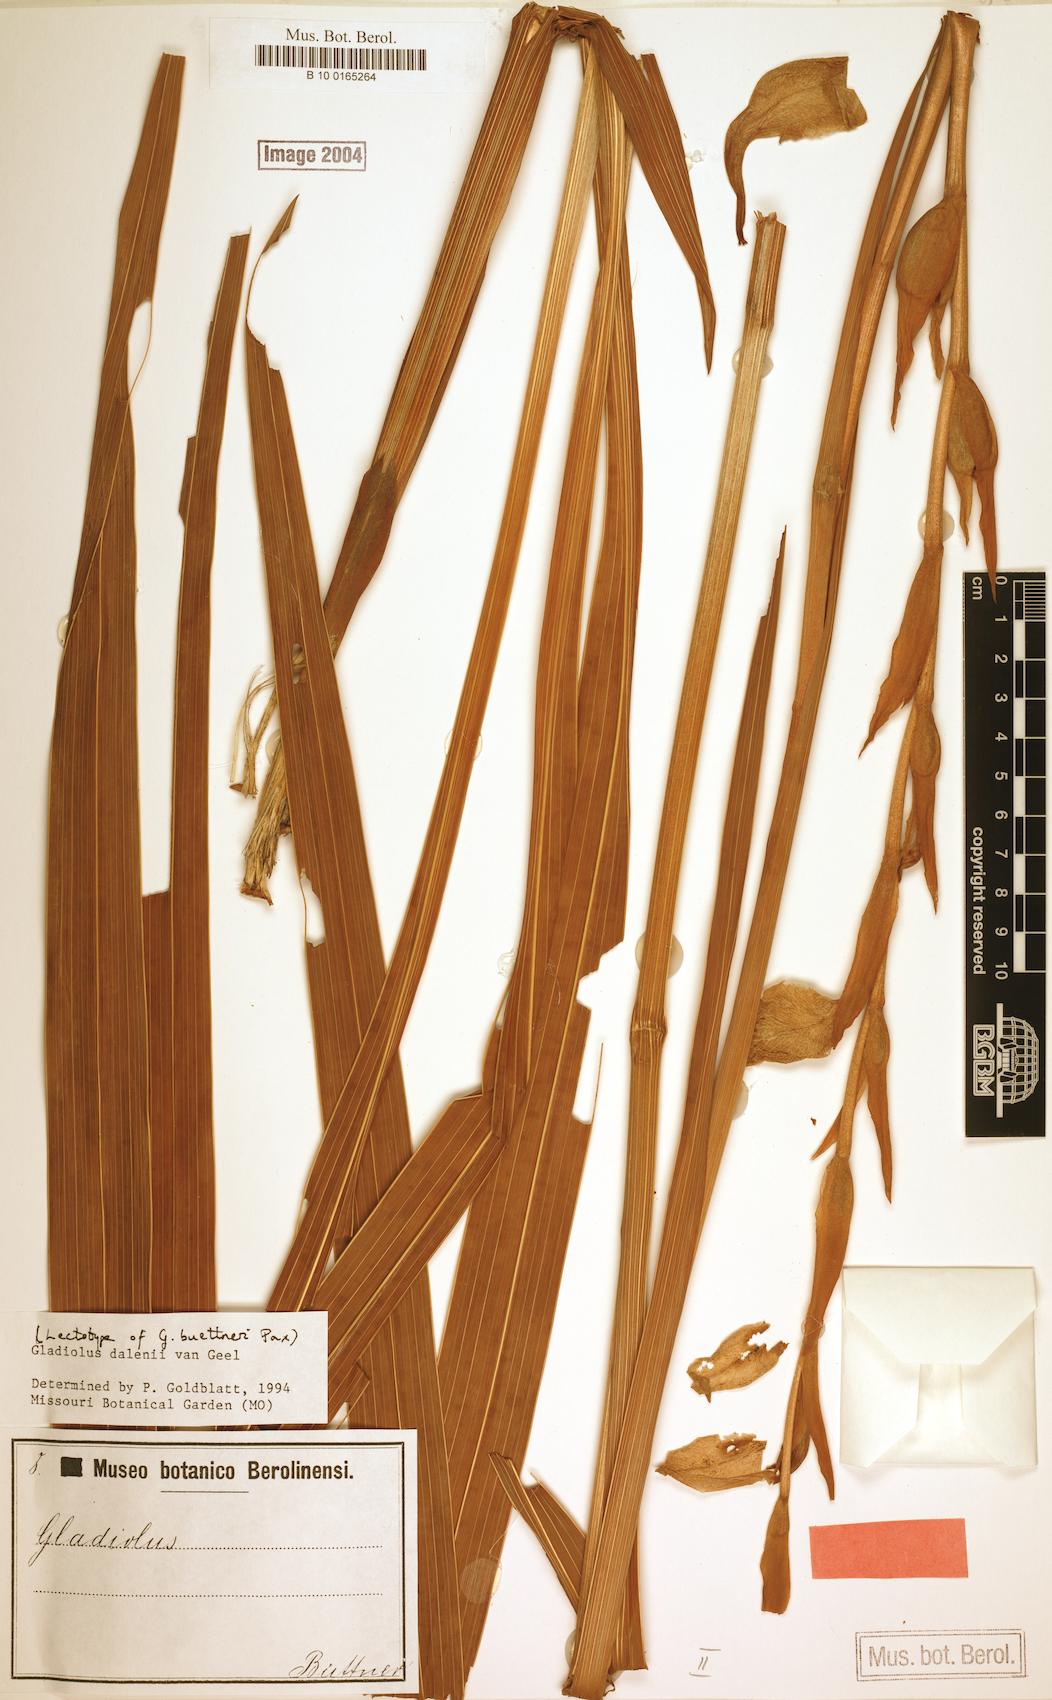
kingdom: Plantae
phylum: Tracheophyta
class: Liliopsida
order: Asparagales
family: Iridaceae
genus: Gladiolus
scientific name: Gladiolus dalenii
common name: Cornflag
